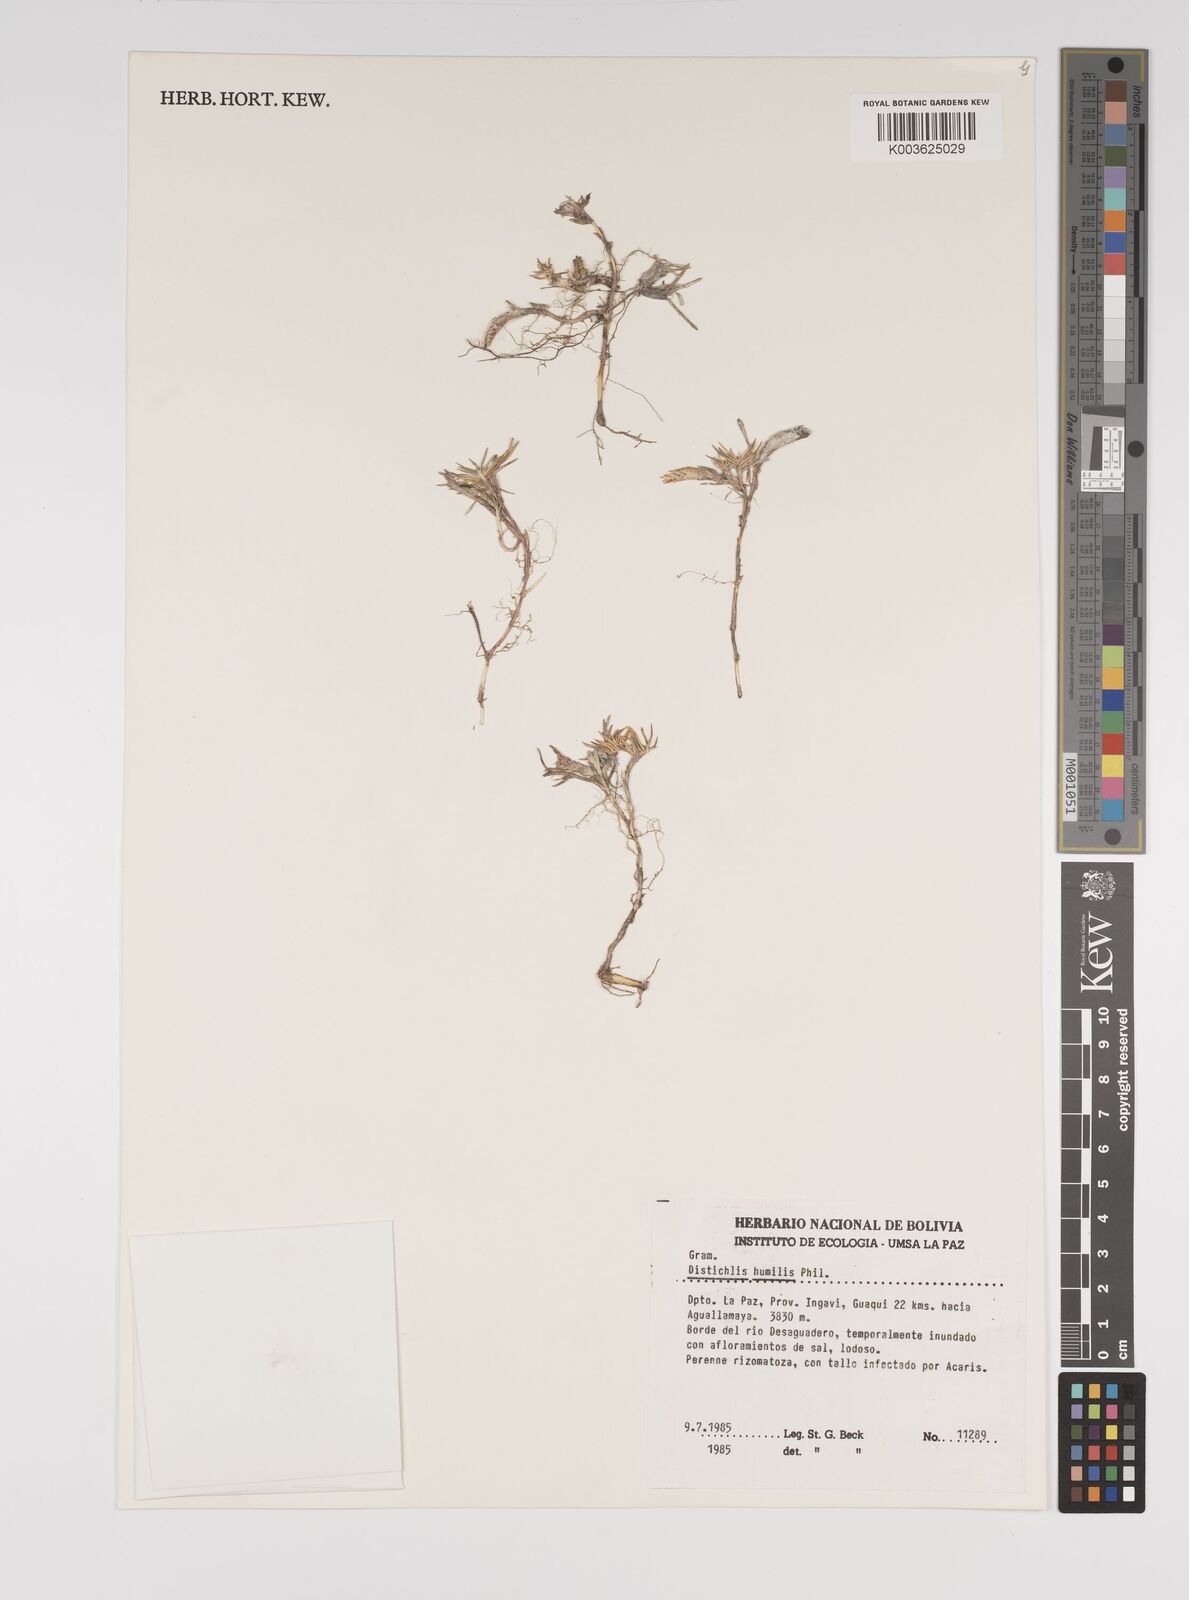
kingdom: Plantae
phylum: Tracheophyta
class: Liliopsida
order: Poales
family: Poaceae
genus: Distichlis
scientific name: Distichlis humilis
